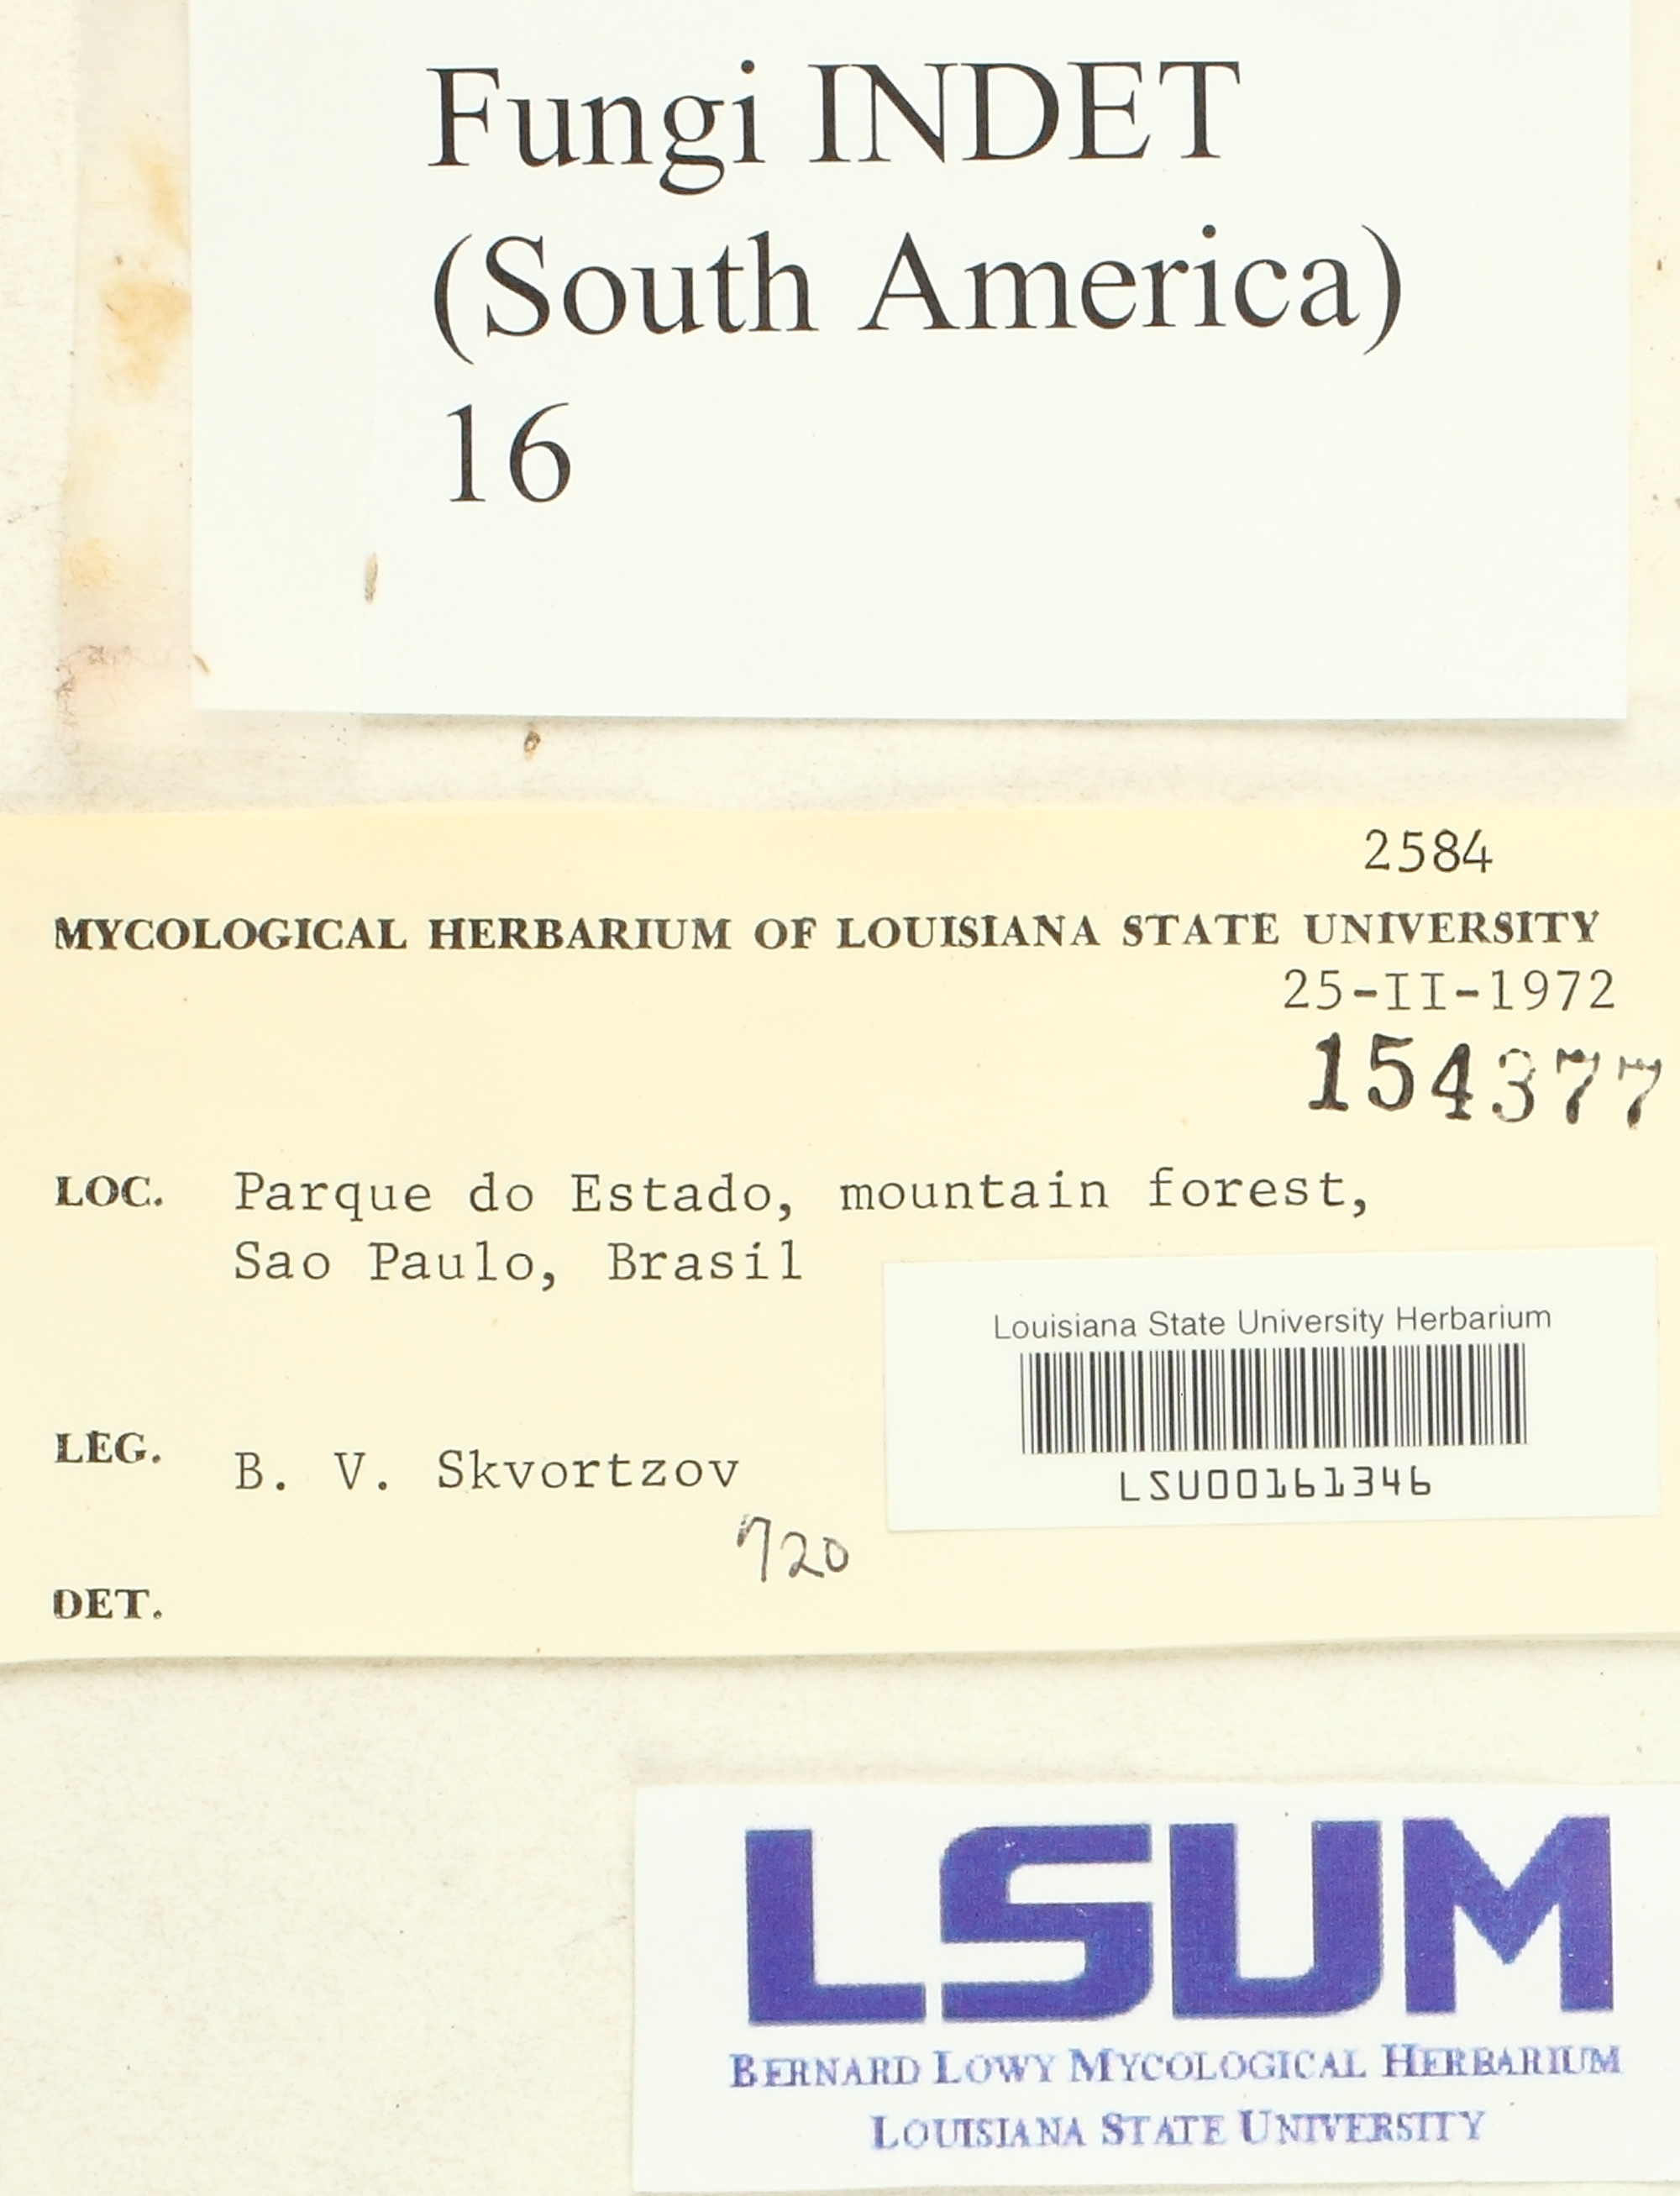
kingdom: Fungi
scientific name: Fungi
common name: Fungi
